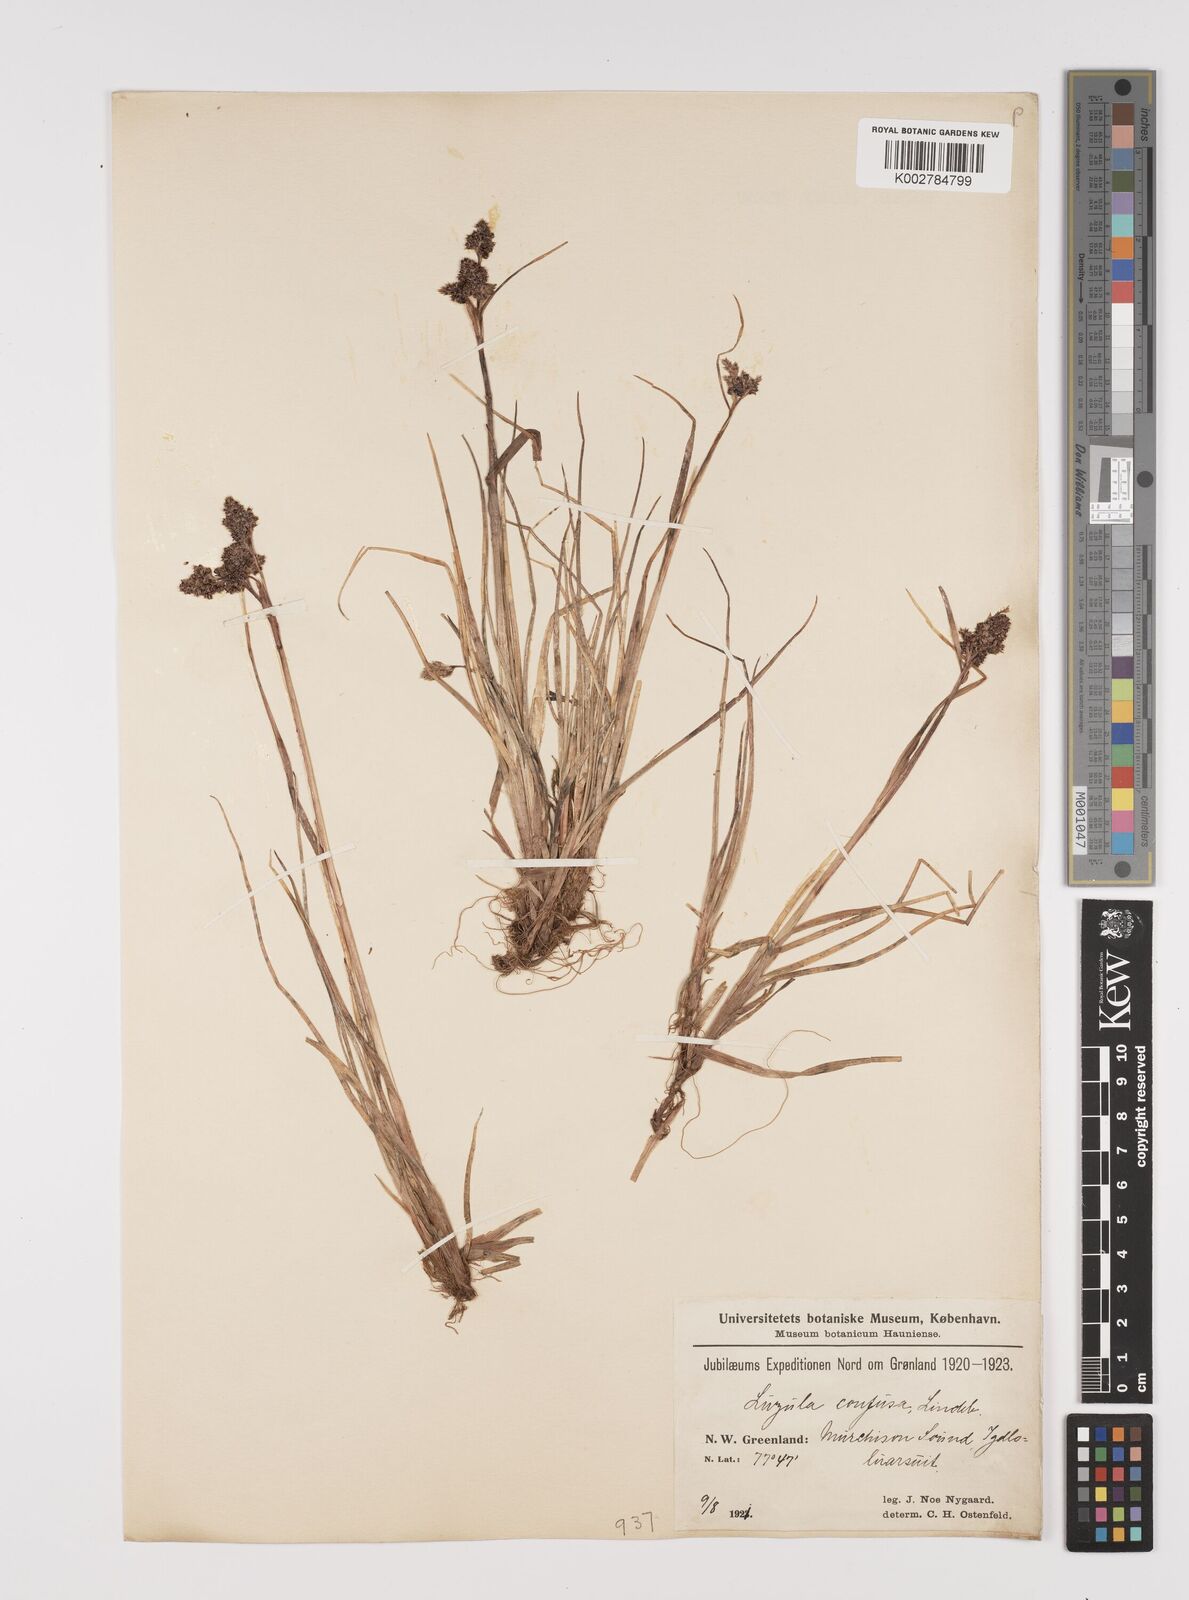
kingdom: Plantae
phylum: Tracheophyta
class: Liliopsida
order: Poales
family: Juncaceae
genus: Luzula
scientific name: Luzula confusa
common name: Northern wood rush
